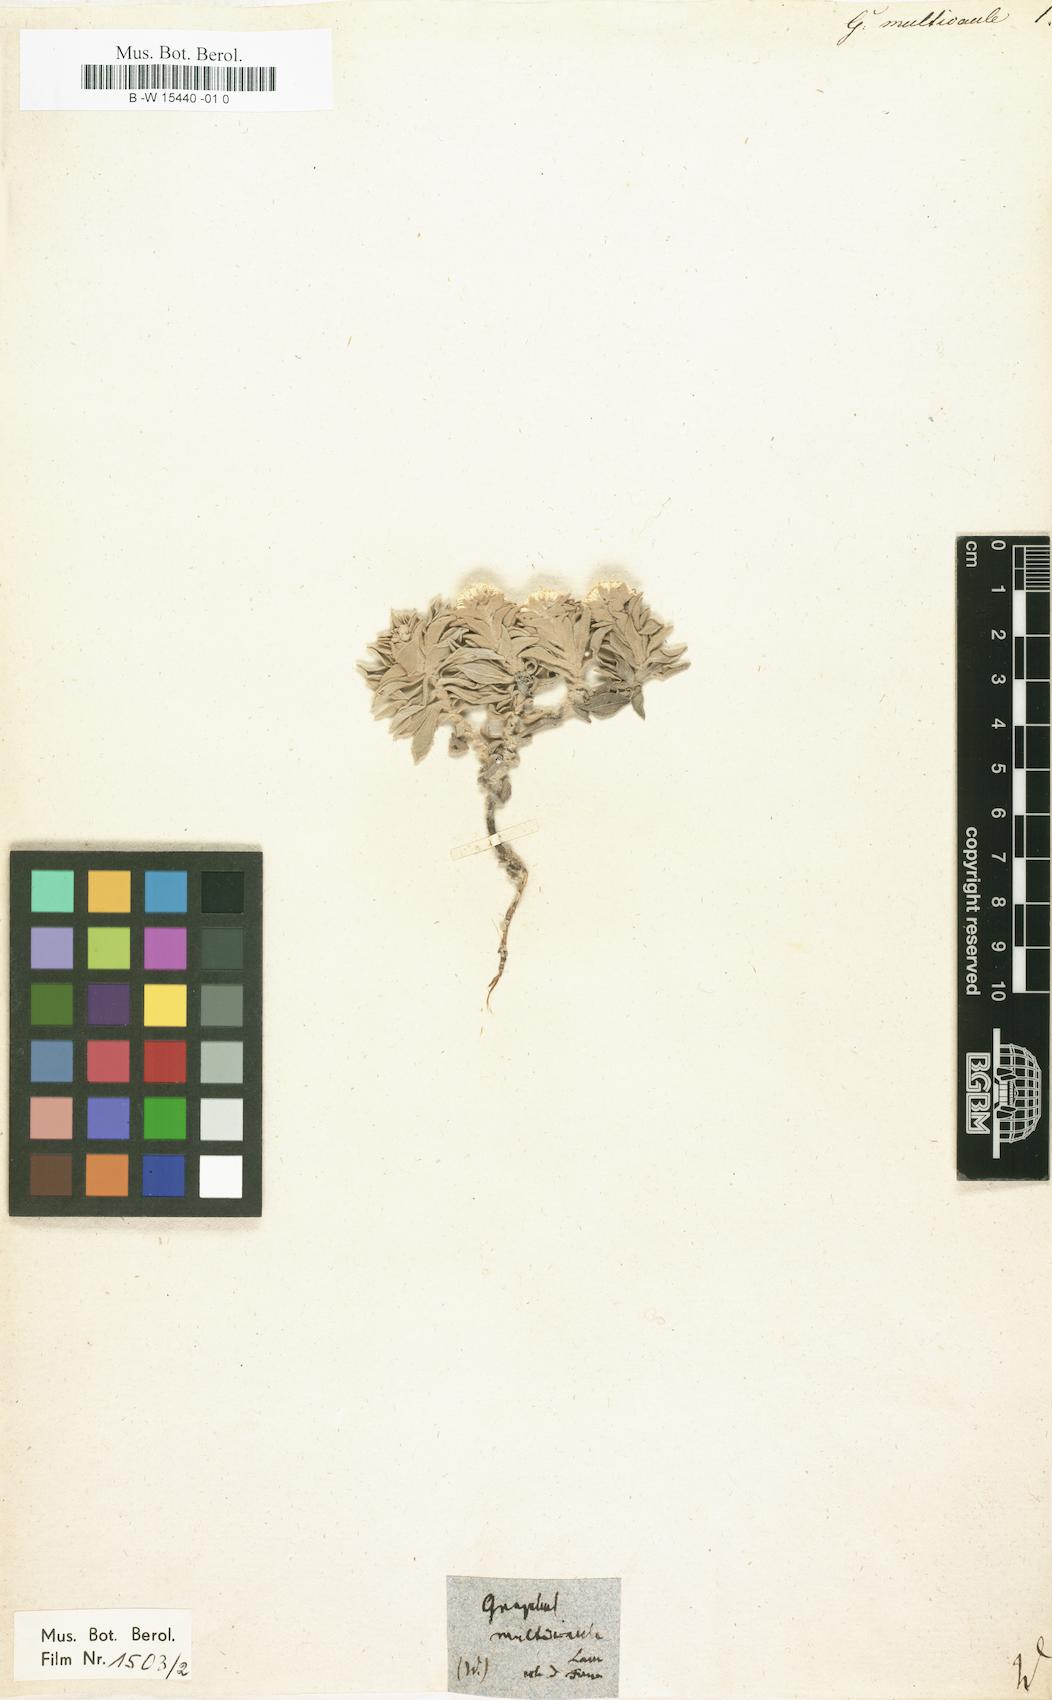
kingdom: Plantae
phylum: Tracheophyta
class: Magnoliopsida
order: Asterales
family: Asteraceae
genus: Helichrysum
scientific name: Helichrysum cespitosum
